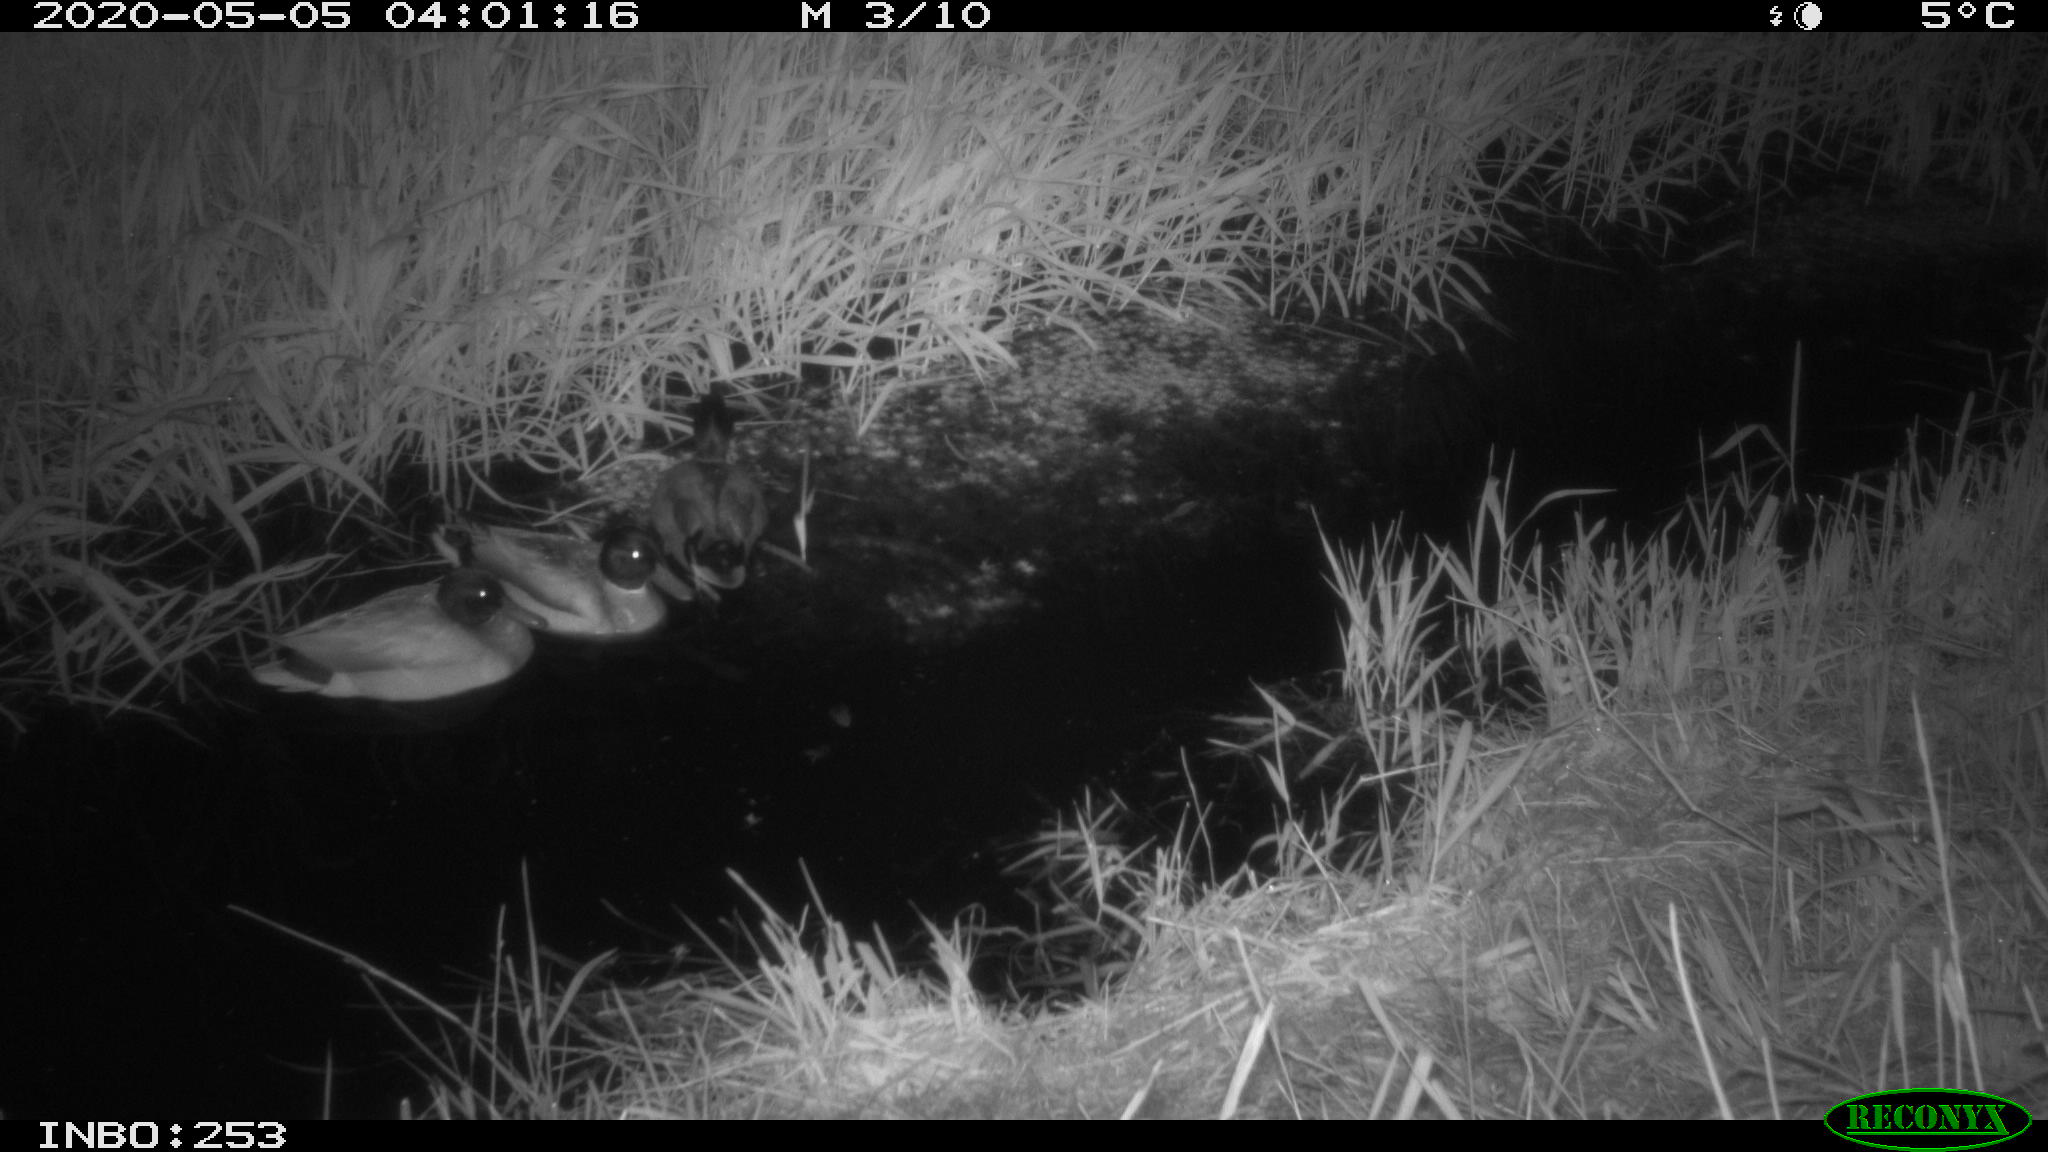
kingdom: Animalia
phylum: Chordata
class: Aves
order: Anseriformes
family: Anatidae
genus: Anas
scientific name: Anas platyrhynchos
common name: Mallard
